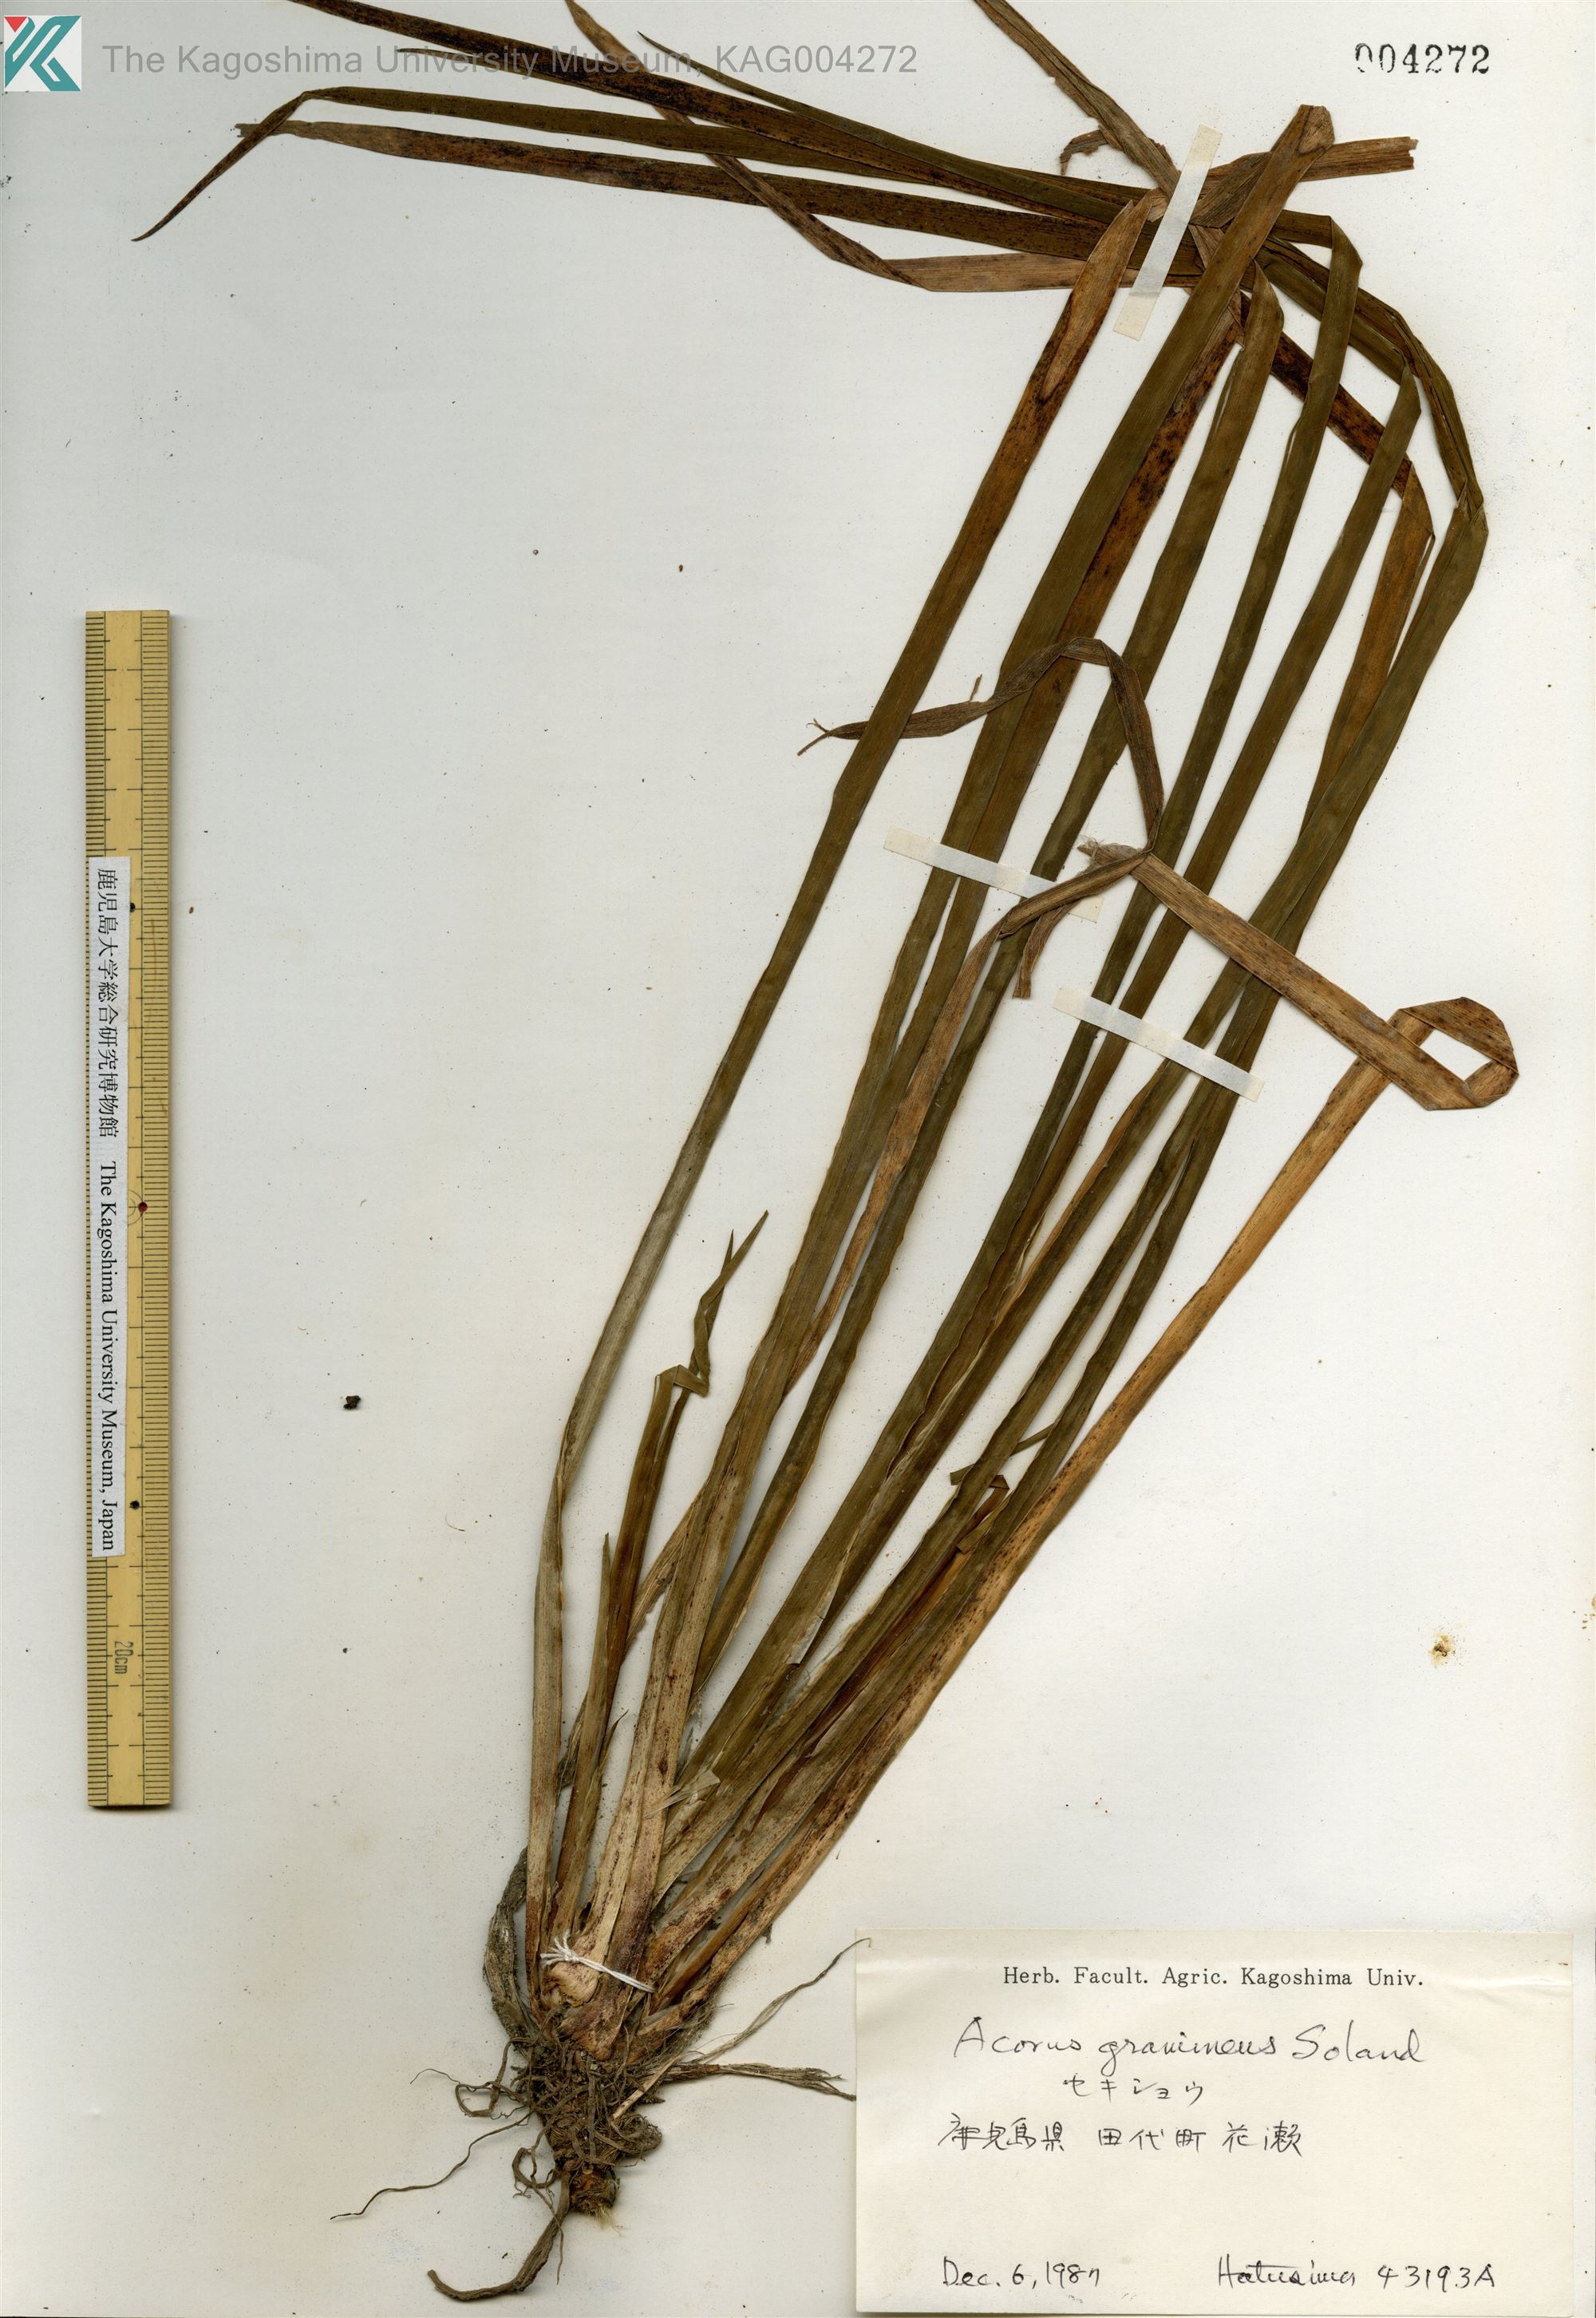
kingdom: Plantae
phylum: Tracheophyta
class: Liliopsida
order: Acorales
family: Acoraceae
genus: Acorus
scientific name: Acorus gramineus
